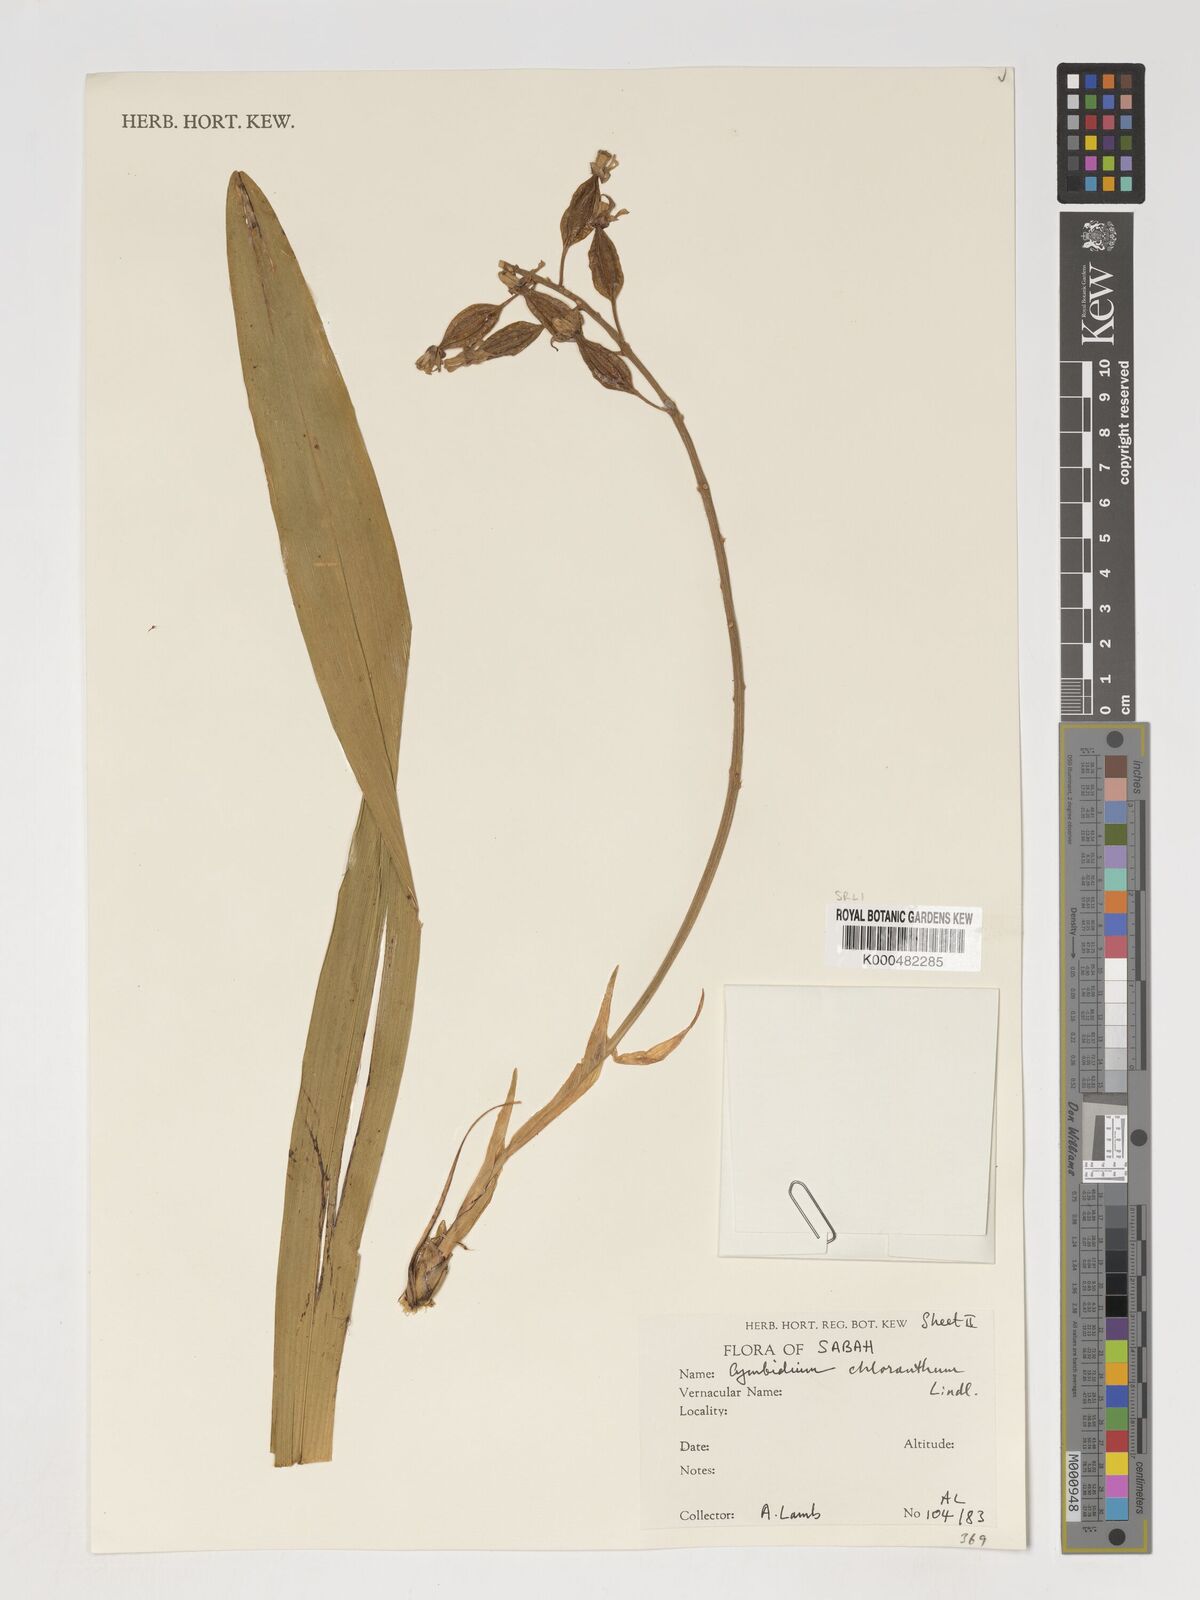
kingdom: Plantae
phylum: Tracheophyta
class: Liliopsida
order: Asparagales
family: Orchidaceae
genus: Cymbidium
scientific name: Cymbidium
